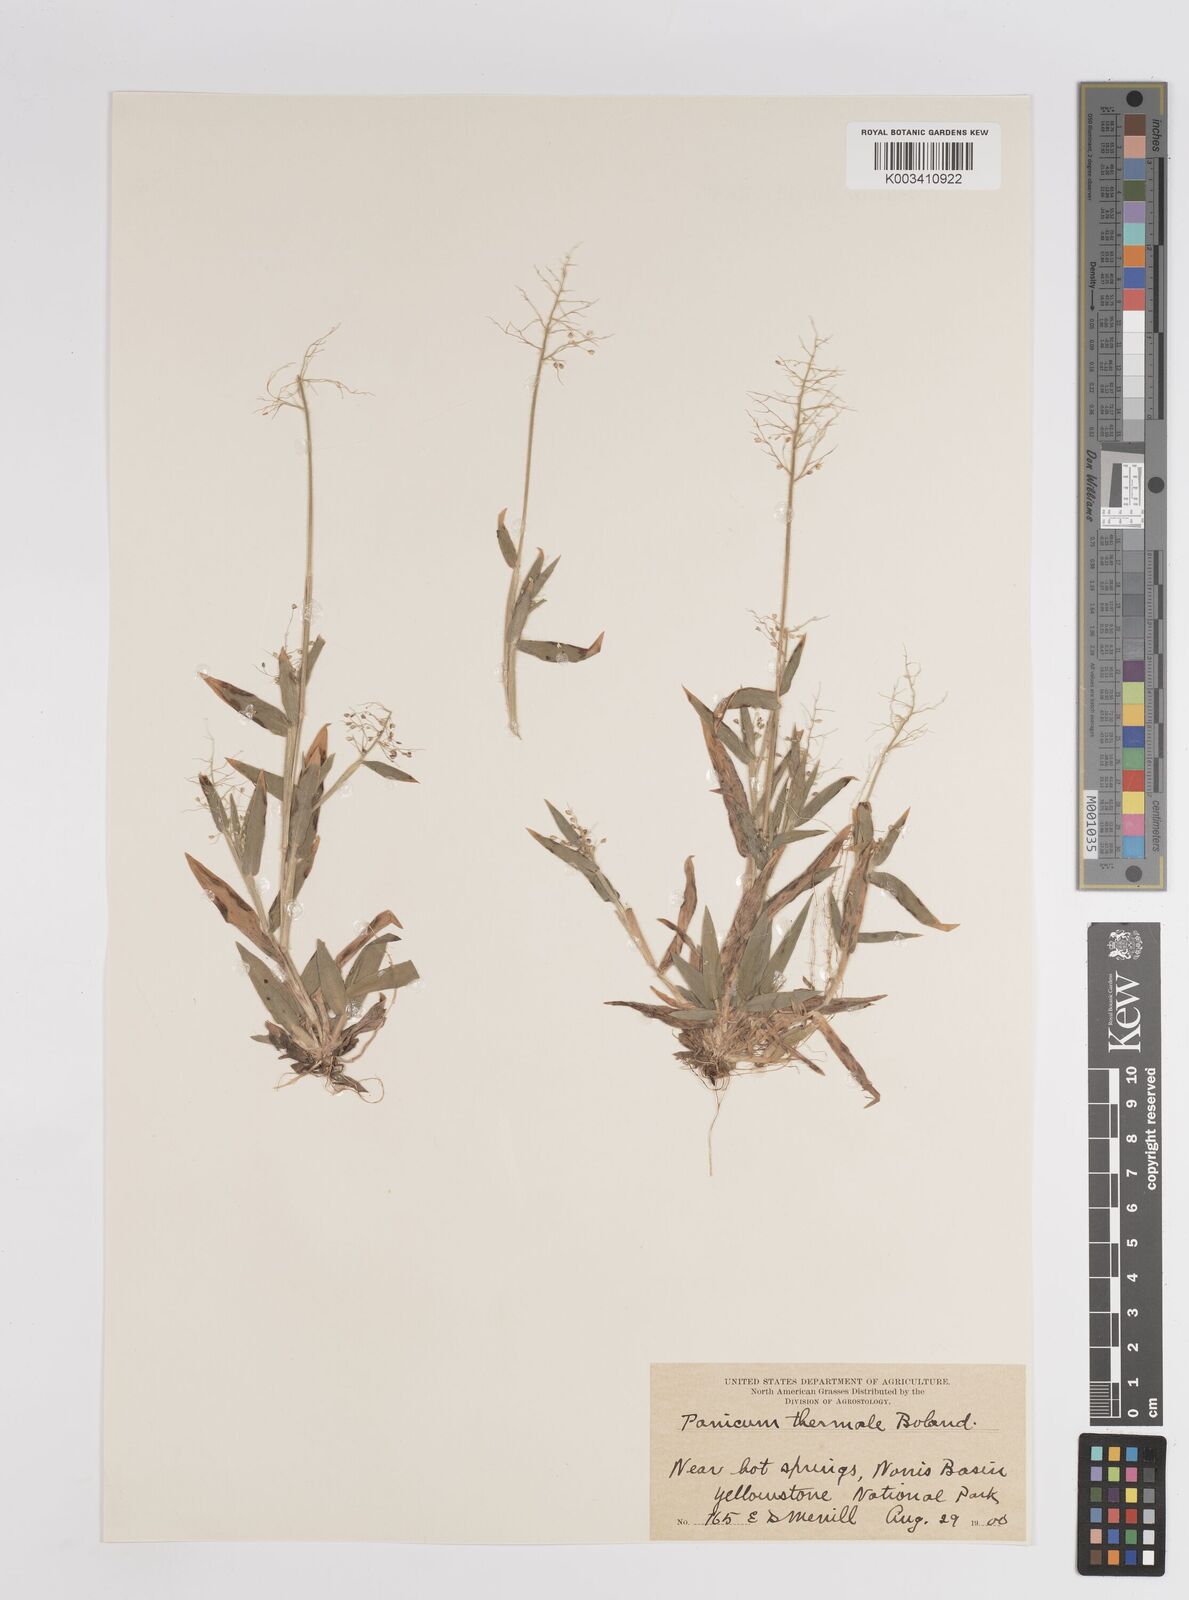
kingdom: Plantae
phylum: Tracheophyta
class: Liliopsida
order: Poales
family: Poaceae
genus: Dichanthelium
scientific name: Dichanthelium thermale
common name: Geyser panicgrass
